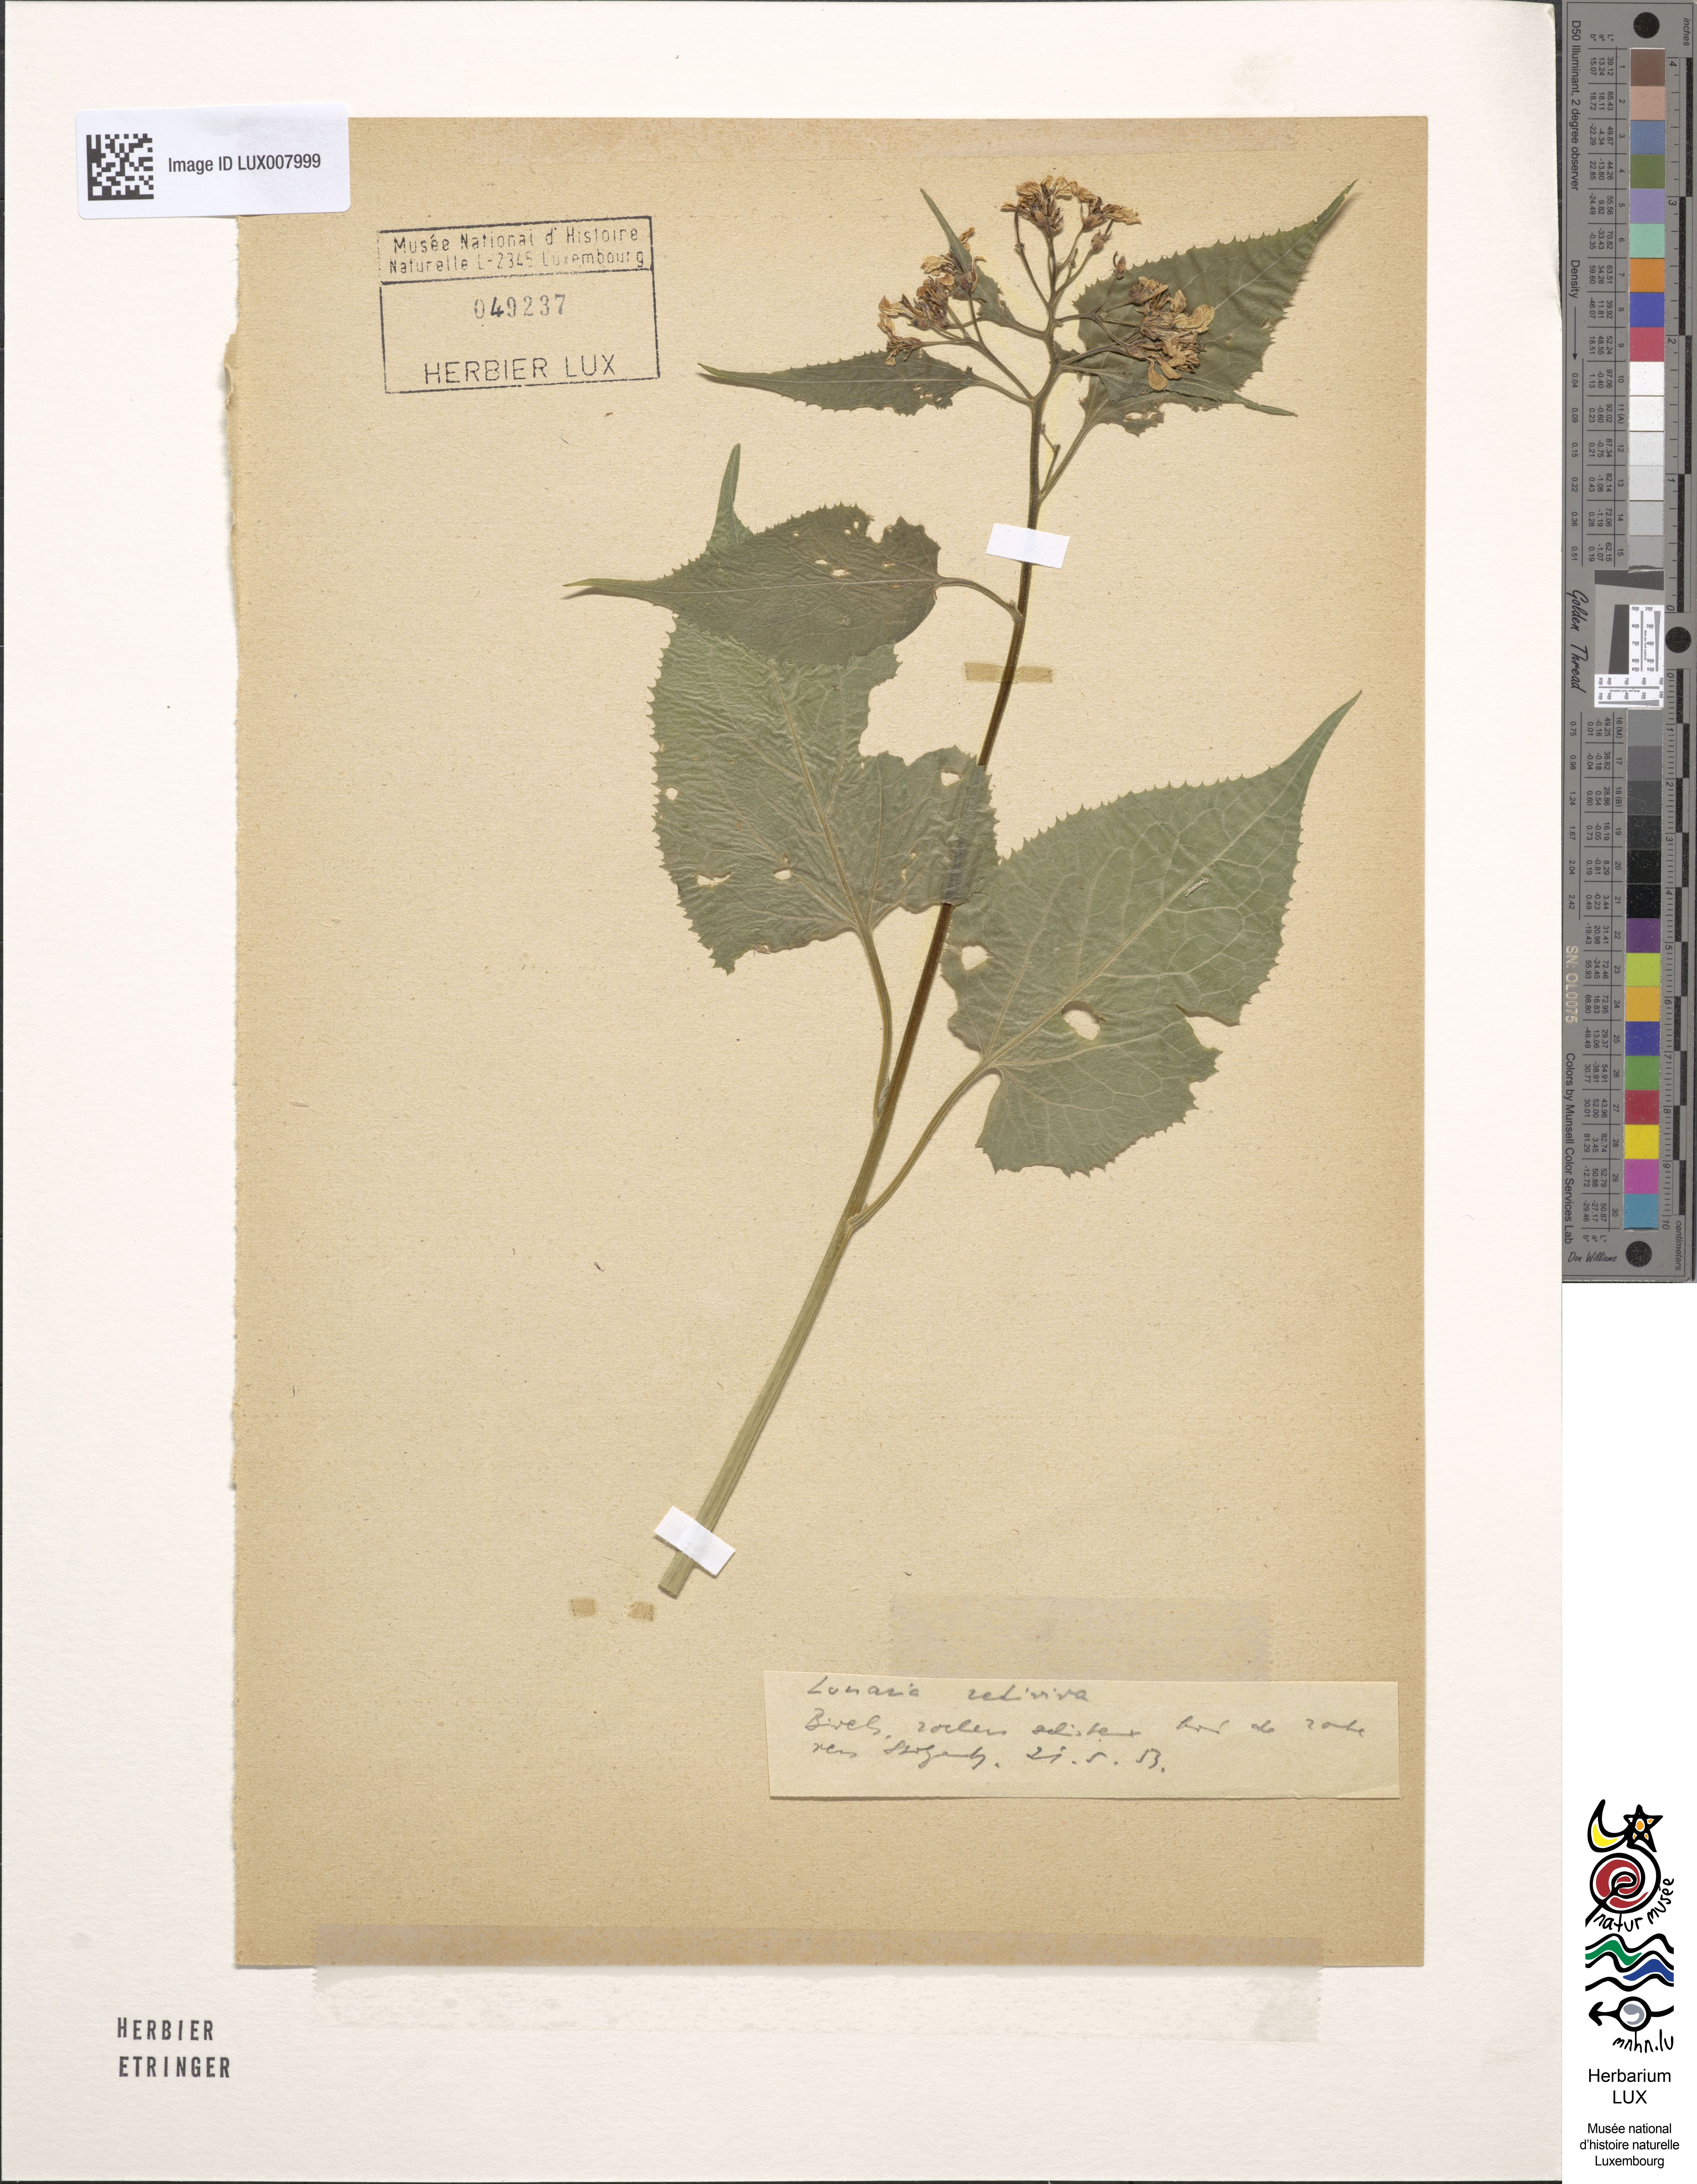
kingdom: Plantae
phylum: Tracheophyta
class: Magnoliopsida
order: Brassicales
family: Brassicaceae
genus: Lunaria
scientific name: Lunaria rediviva
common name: Perennial honesty
